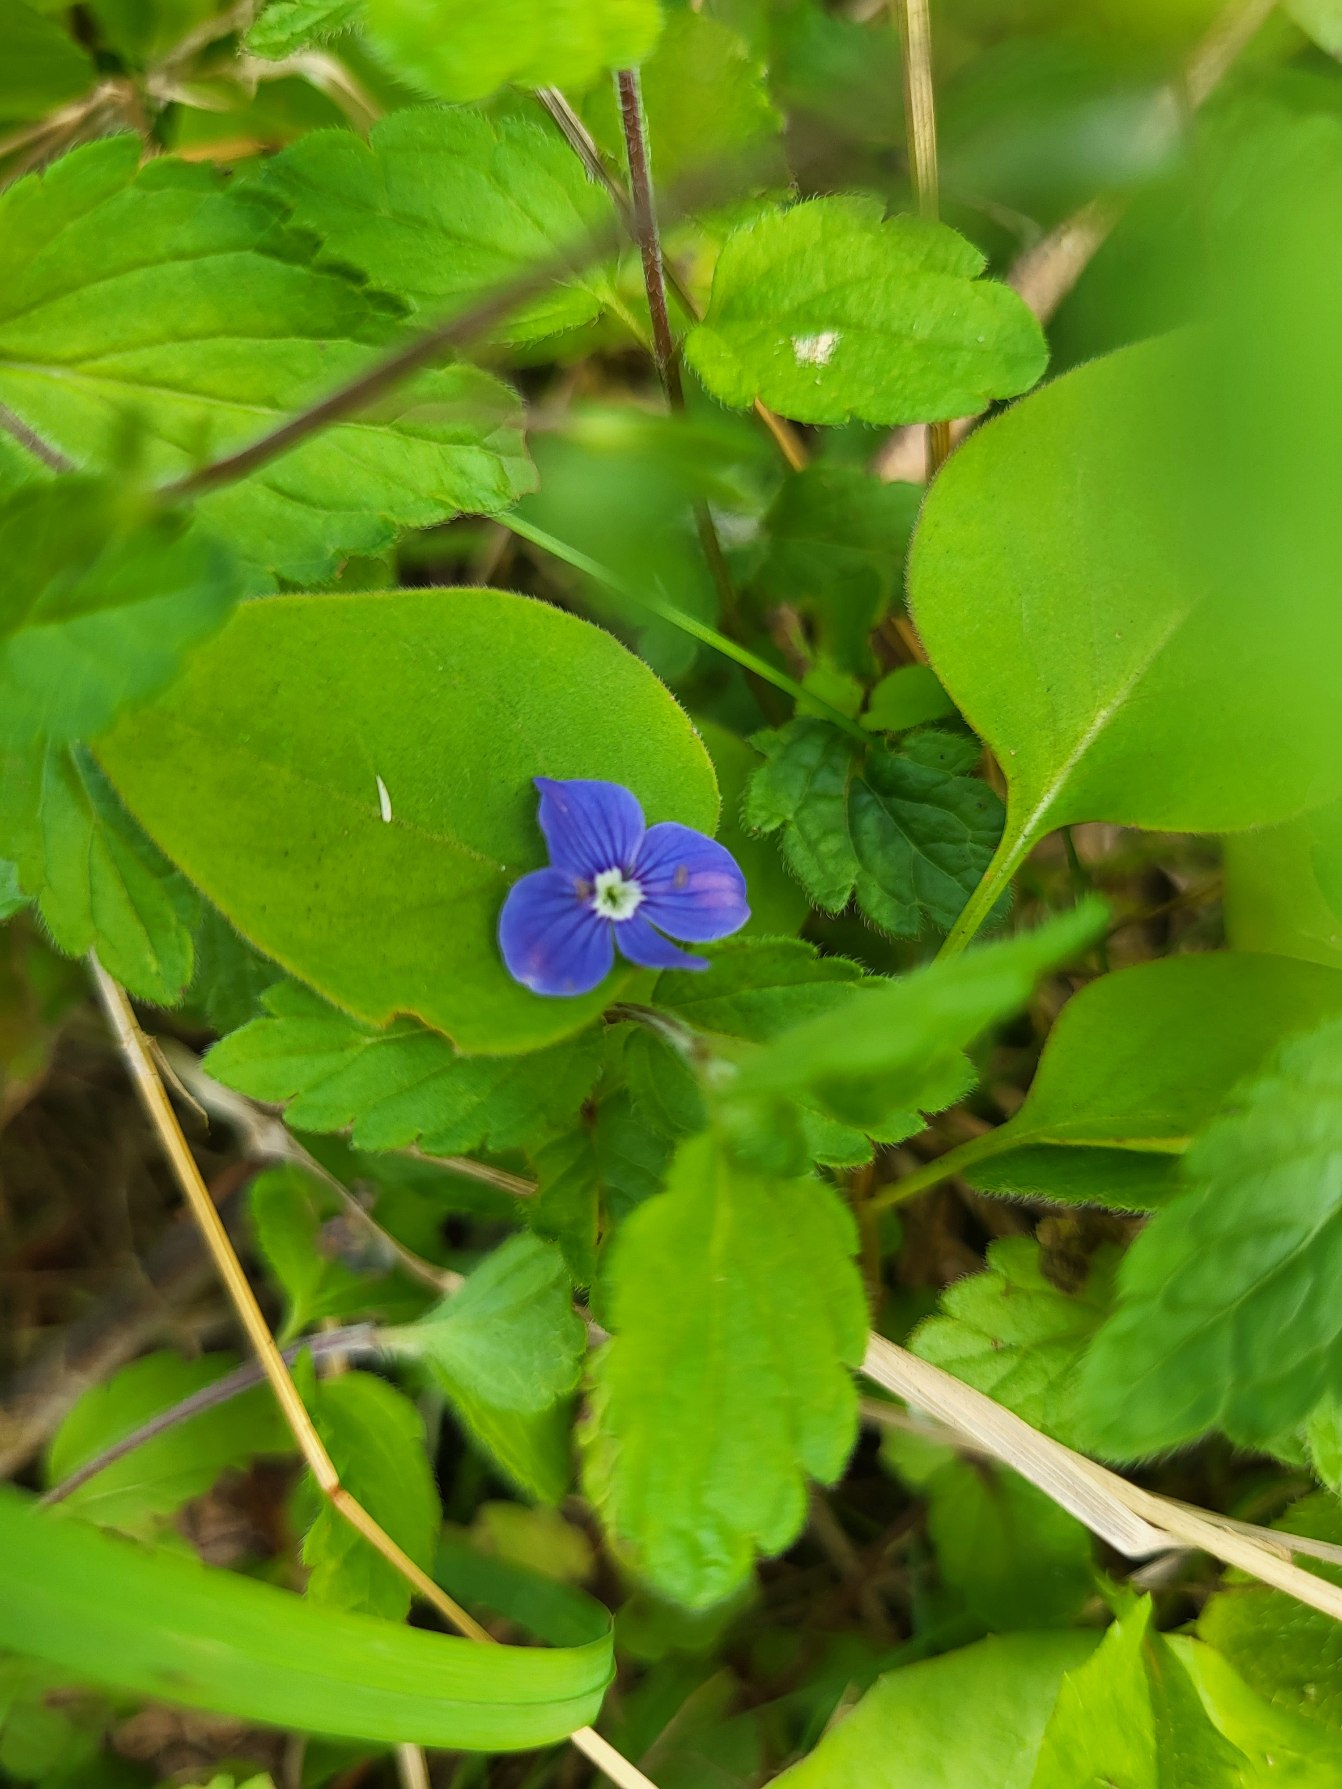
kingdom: Plantae
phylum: Tracheophyta
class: Magnoliopsida
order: Lamiales
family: Plantaginaceae
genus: Veronica
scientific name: Veronica chamaedrys
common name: Tveskægget ærenpris
